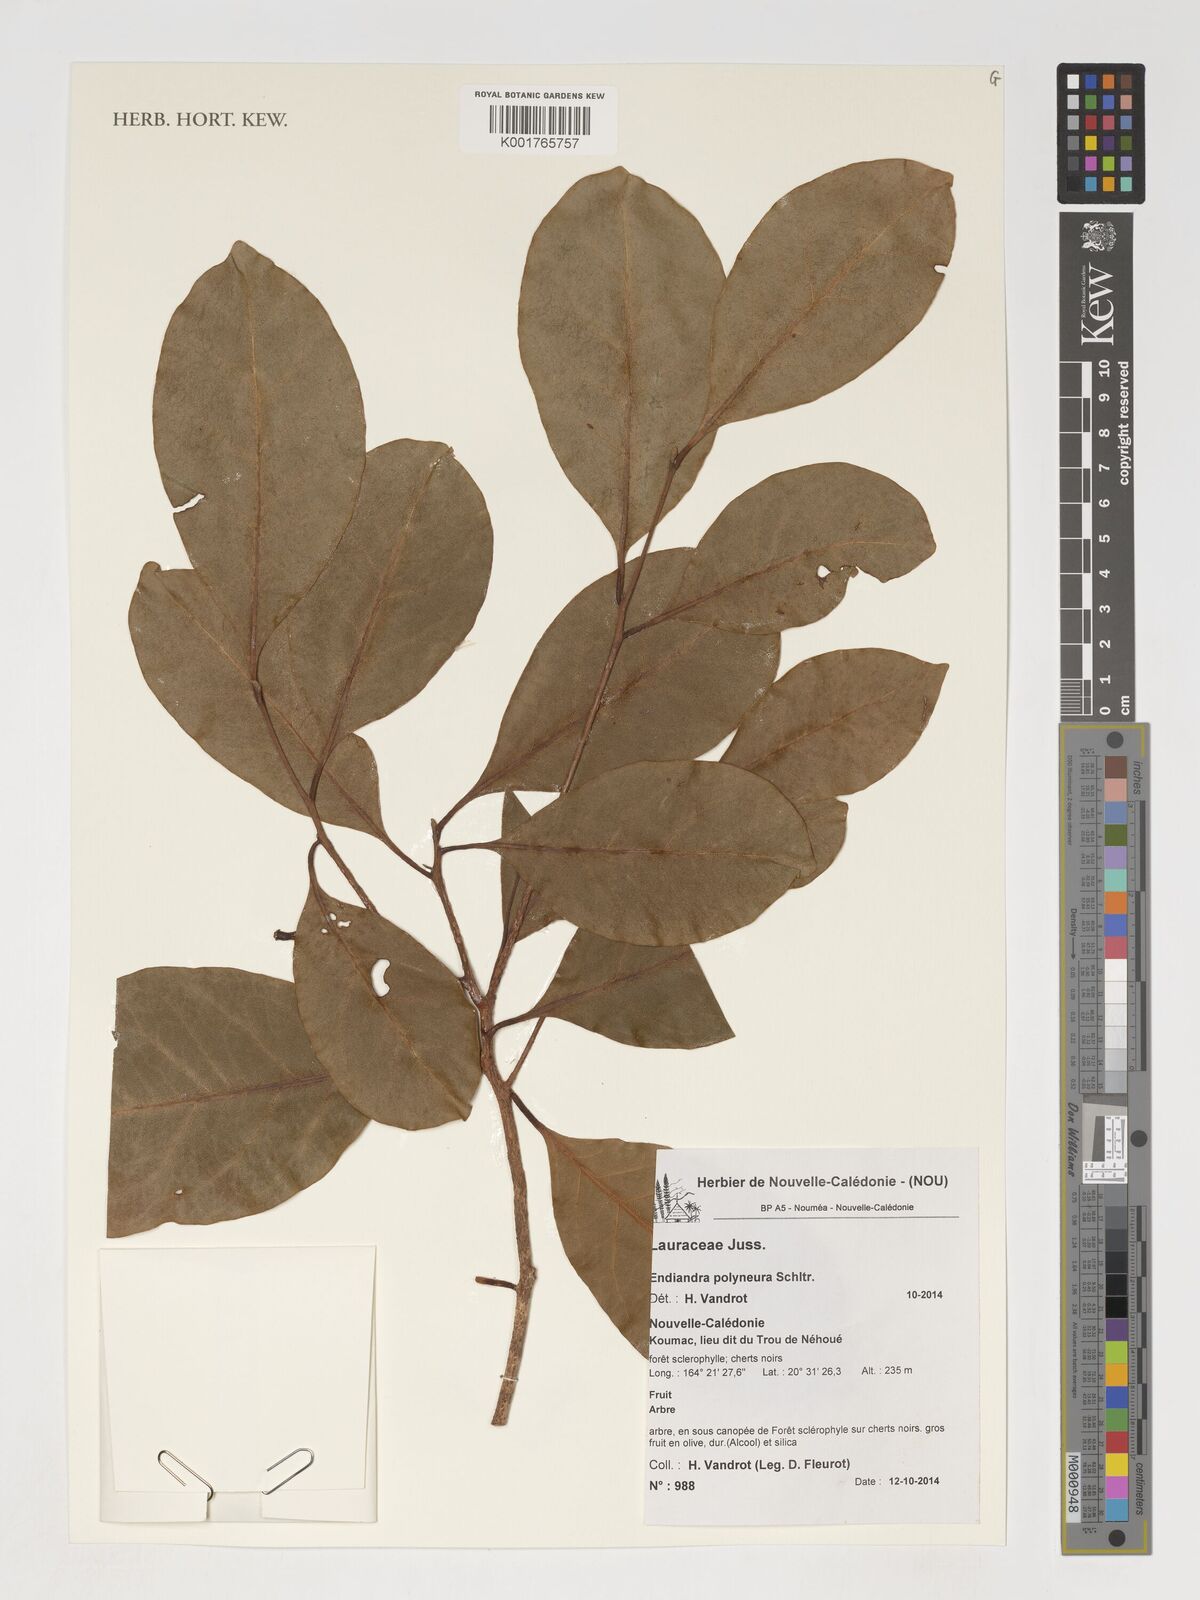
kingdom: Plantae
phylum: Tracheophyta
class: Magnoliopsida
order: Laurales
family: Lauraceae
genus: Endiandra
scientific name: Endiandra polyneura
